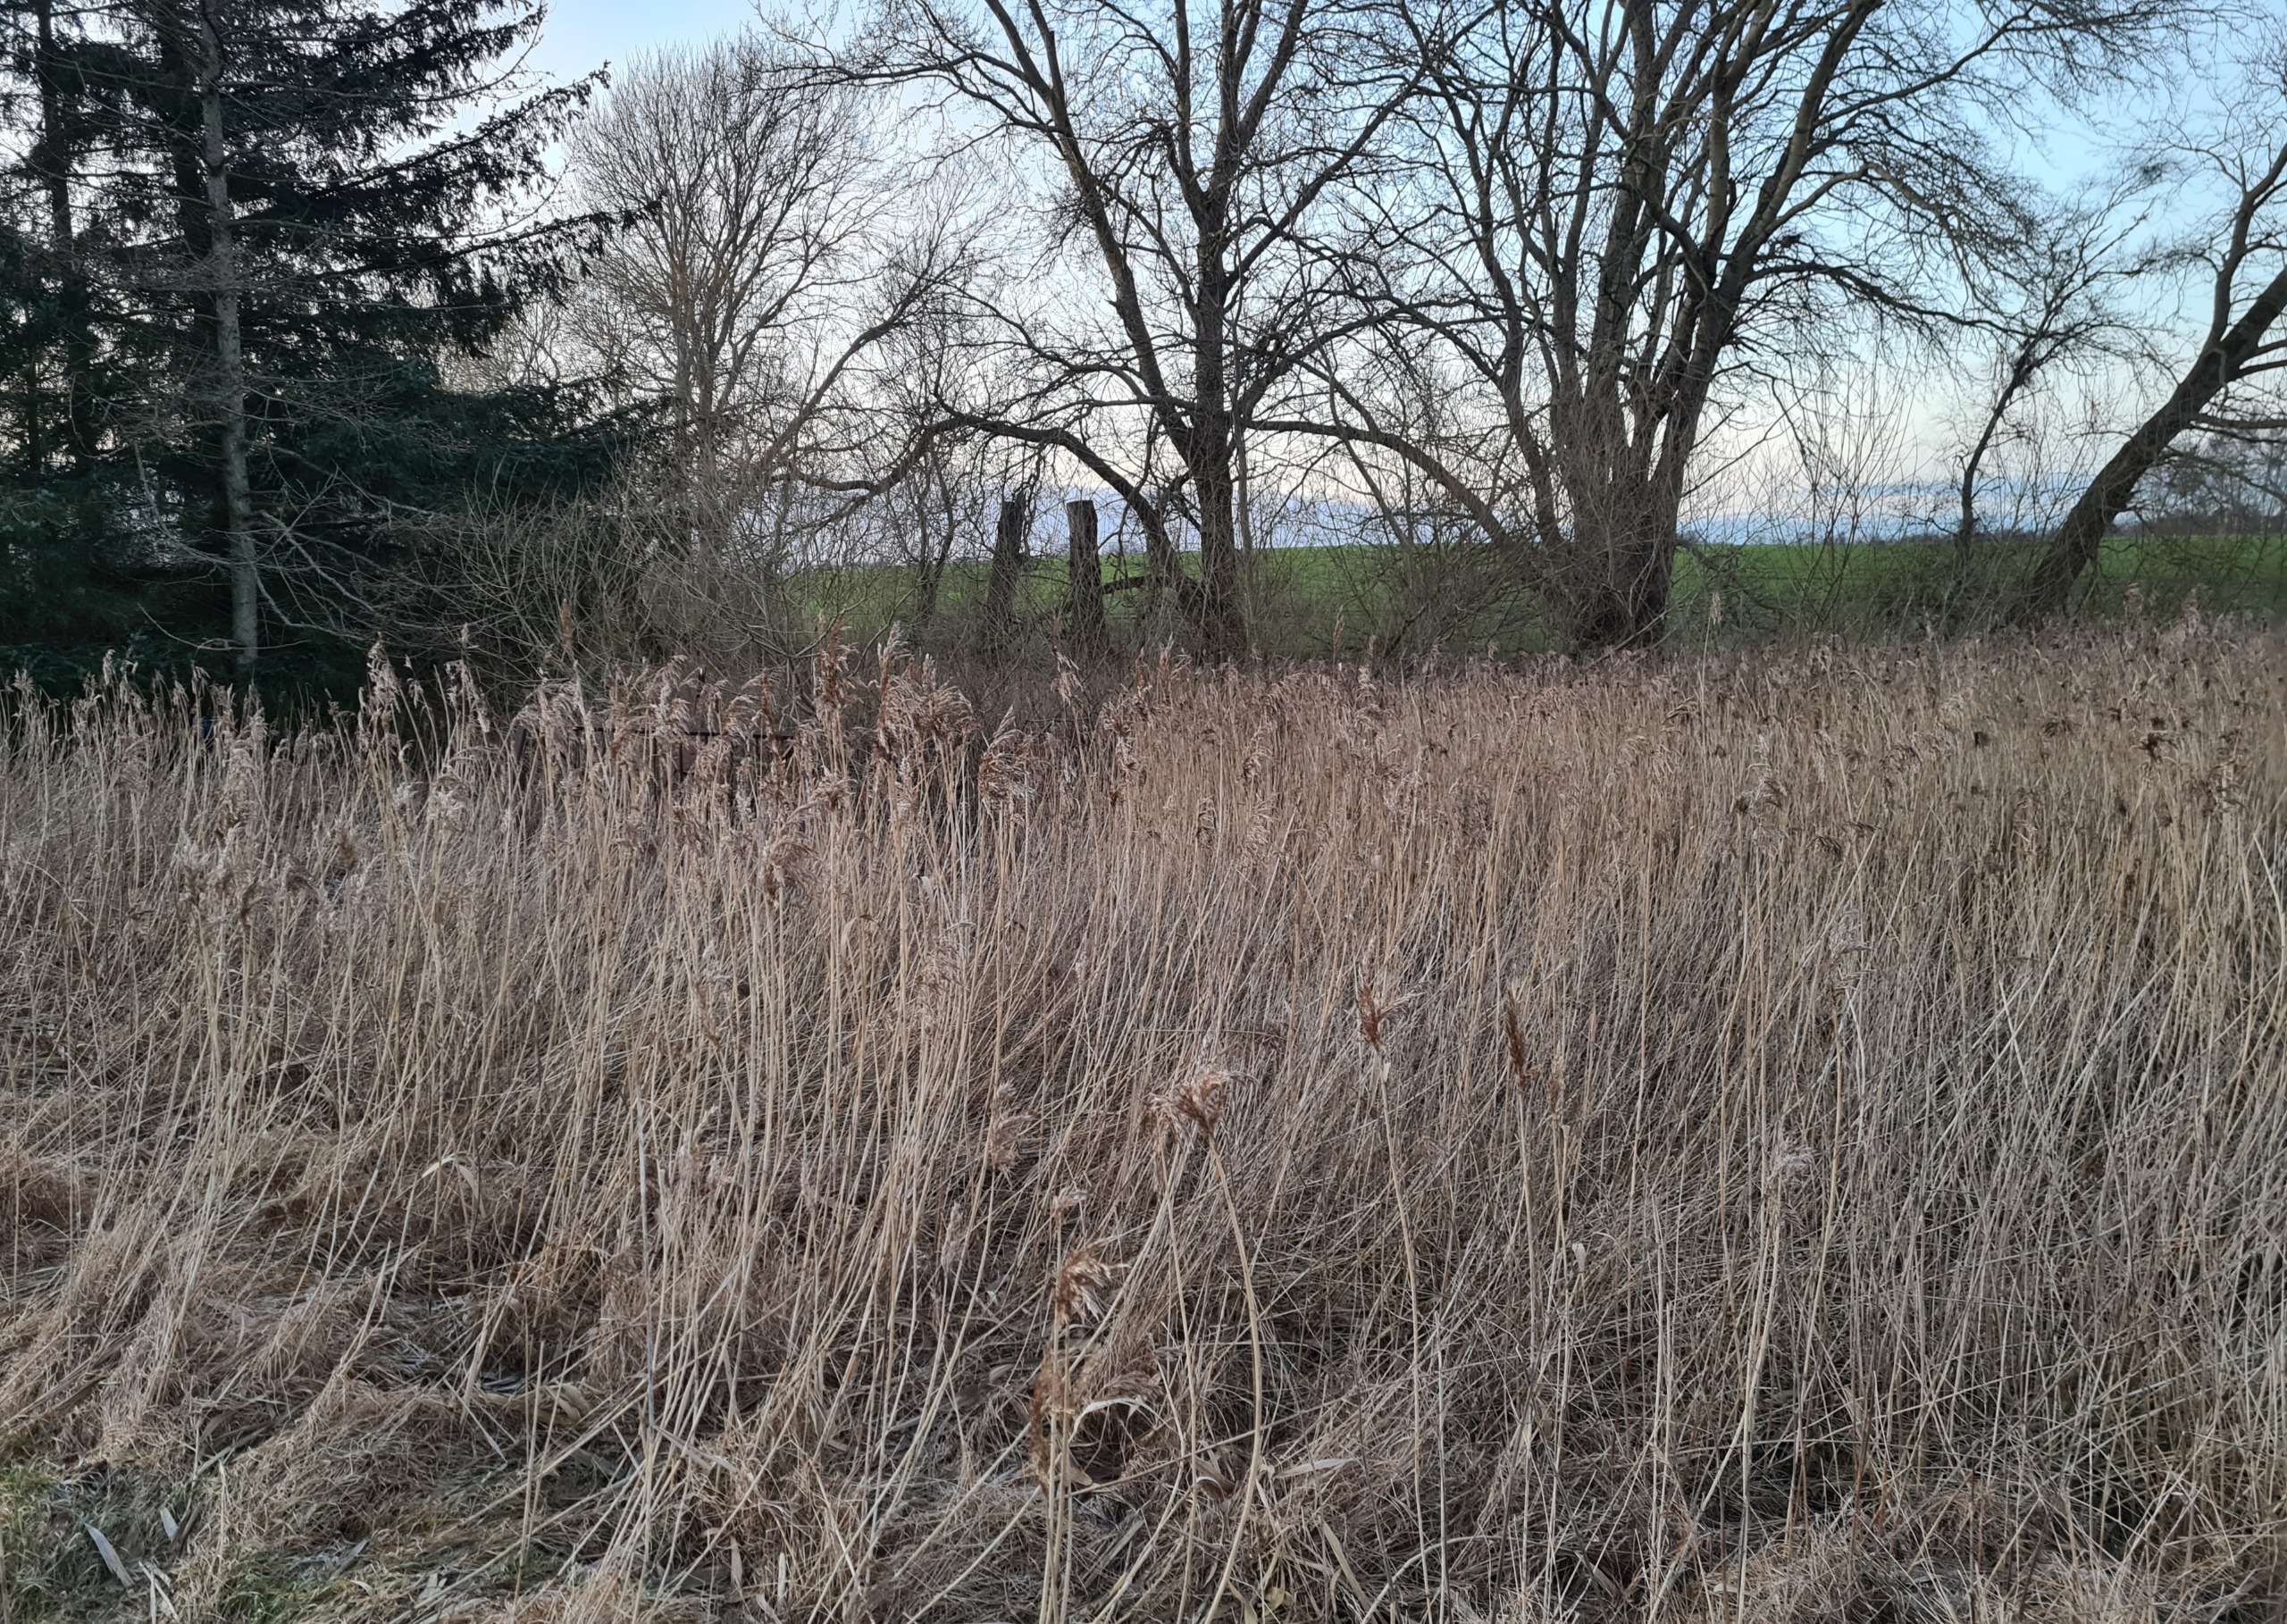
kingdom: Plantae
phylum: Tracheophyta
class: Liliopsida
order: Poales
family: Poaceae
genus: Phragmites
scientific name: Phragmites australis
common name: Tagrør
